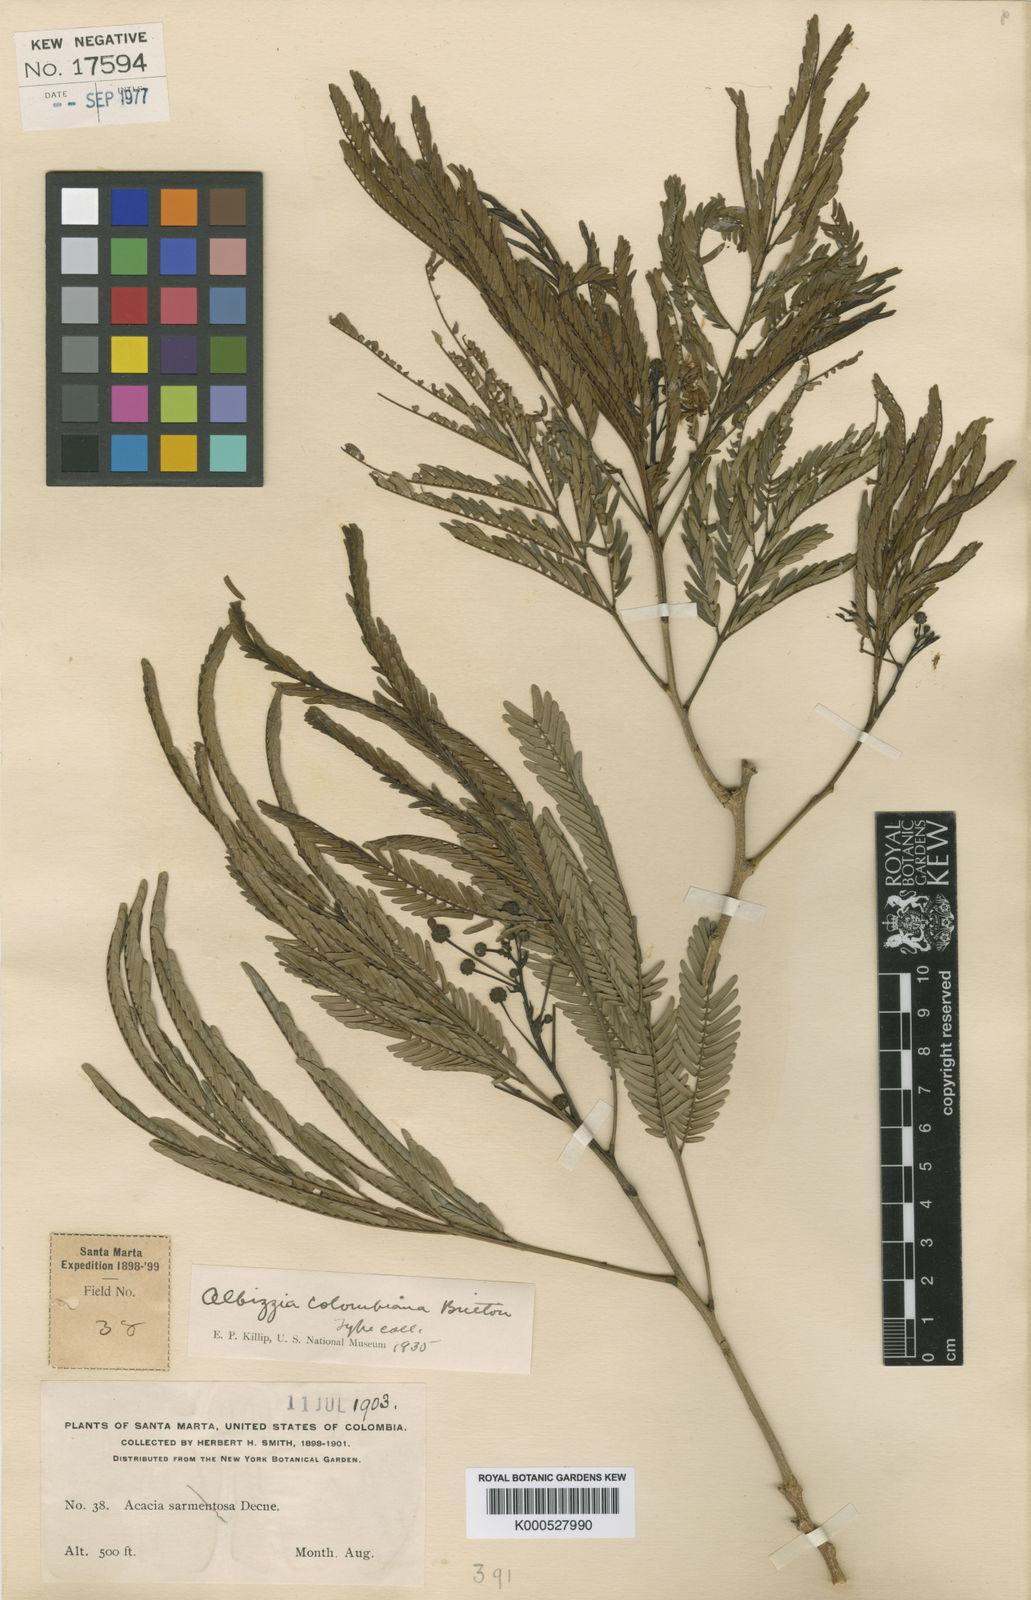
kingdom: Plantae
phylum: Tracheophyta
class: Magnoliopsida
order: Fabales
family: Fabaceae
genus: Albizia
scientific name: Albizia niopoides
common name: Silk tree
